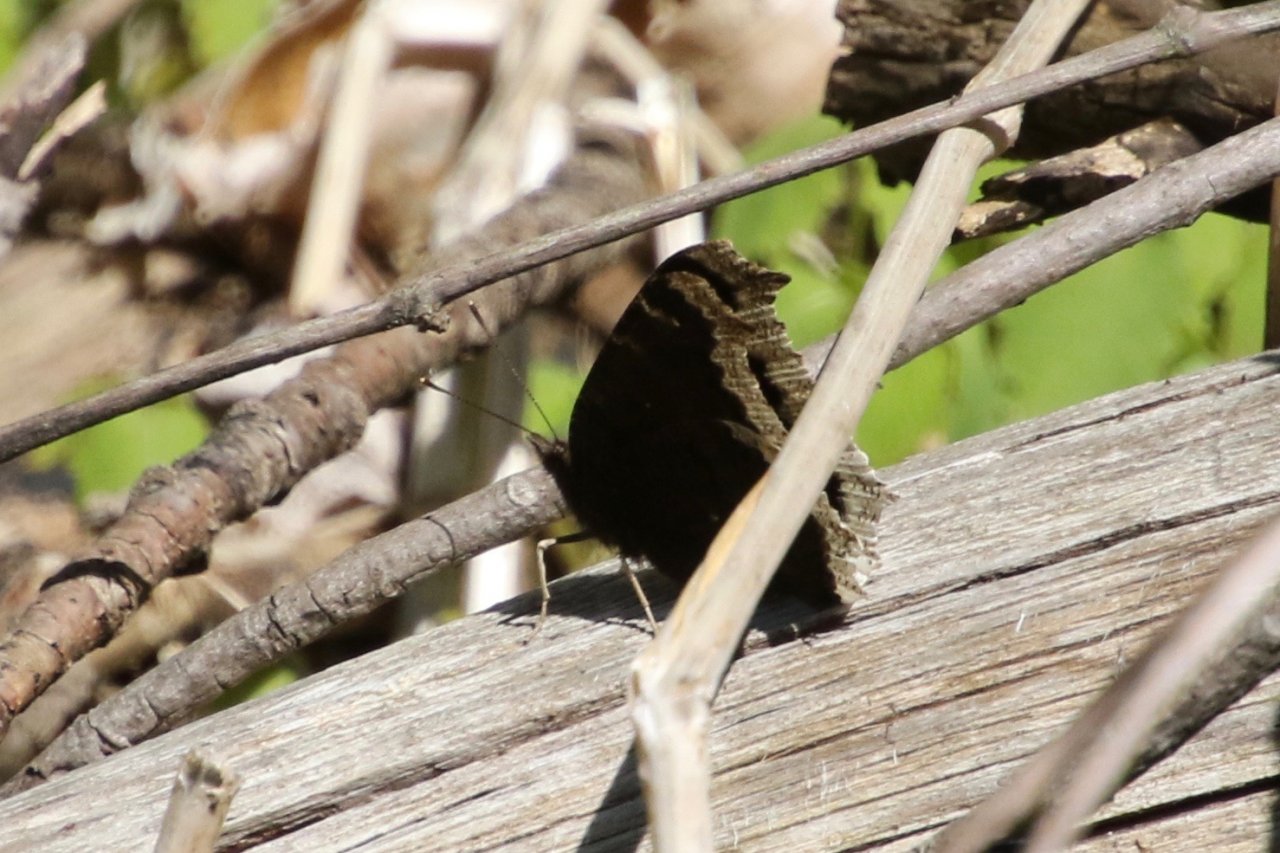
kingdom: Animalia
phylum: Arthropoda
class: Insecta
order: Lepidoptera
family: Nymphalidae
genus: Nymphalis
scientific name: Nymphalis antiopa
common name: Mourning Cloak
